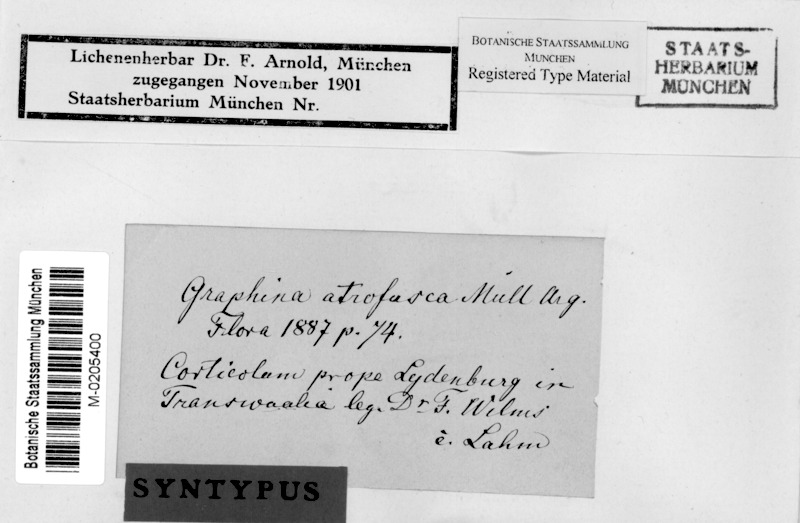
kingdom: Fungi
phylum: Ascomycota
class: Lecanoromycetes
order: Ostropales
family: Graphidaceae
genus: Glyphis
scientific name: Glyphis atrofusca
